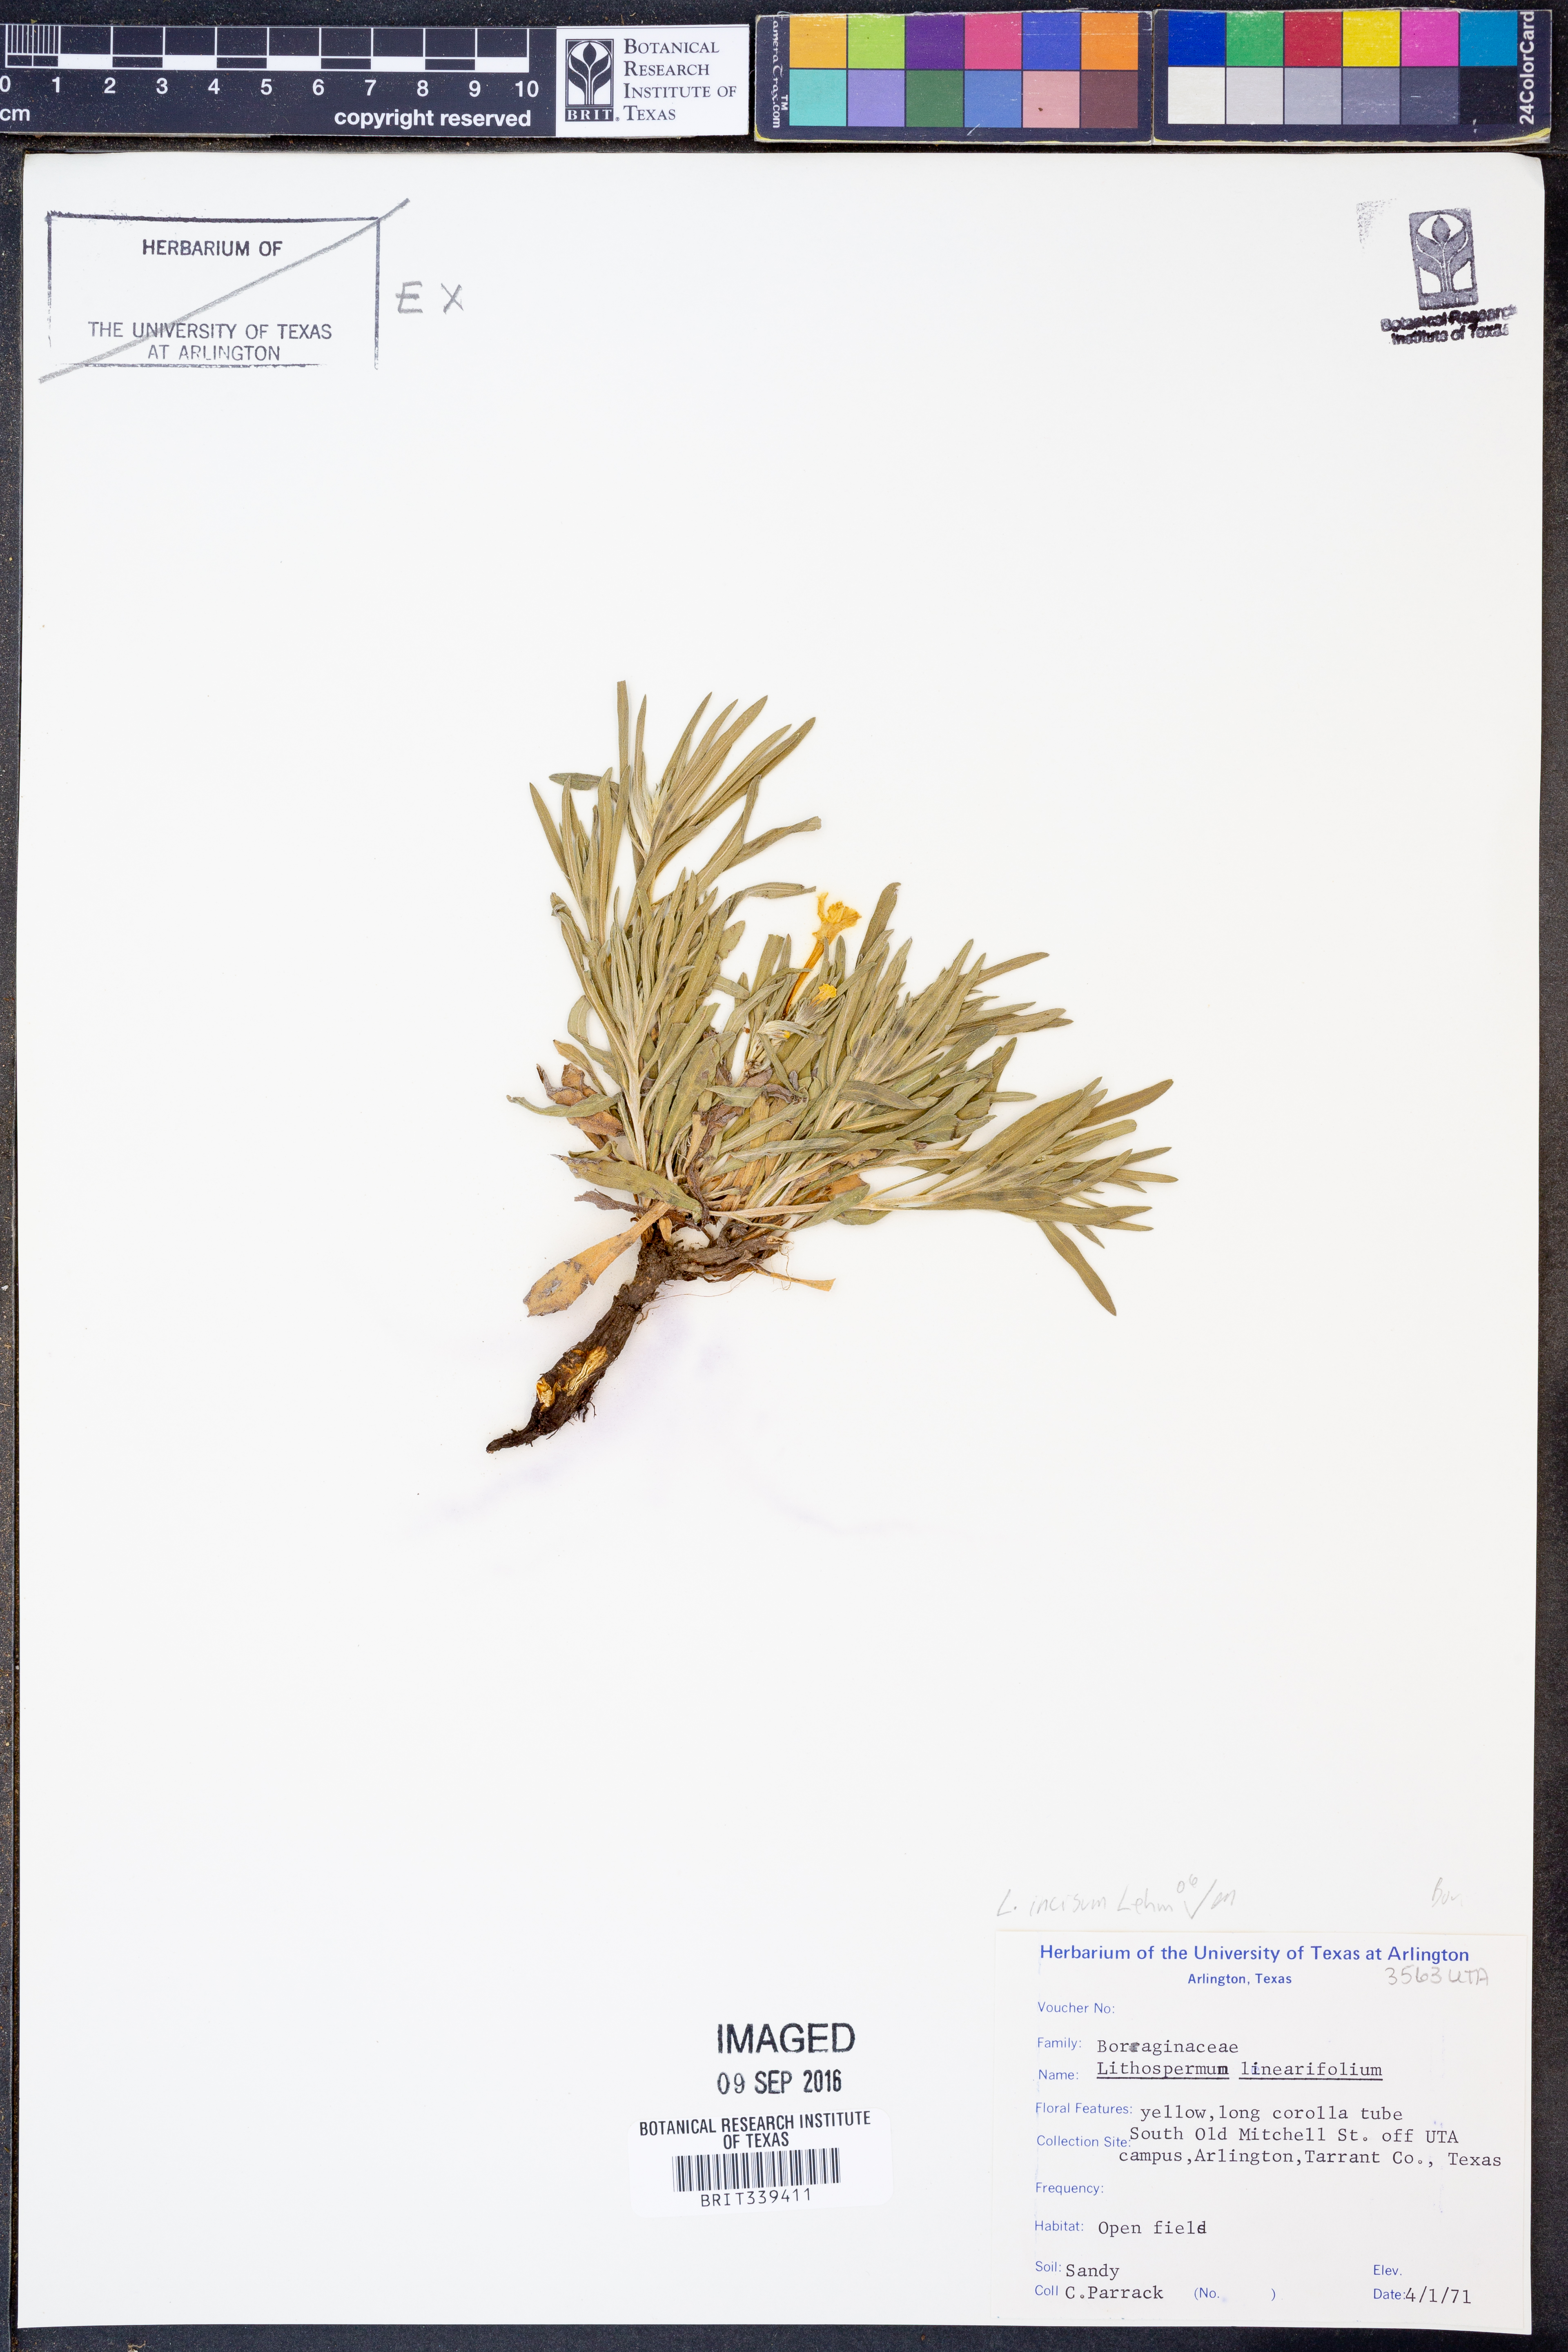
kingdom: Plantae
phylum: Tracheophyta
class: Magnoliopsida
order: Boraginales
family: Boraginaceae
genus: Lithospermum
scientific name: Lithospermum incisum
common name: Fringed gromwell
